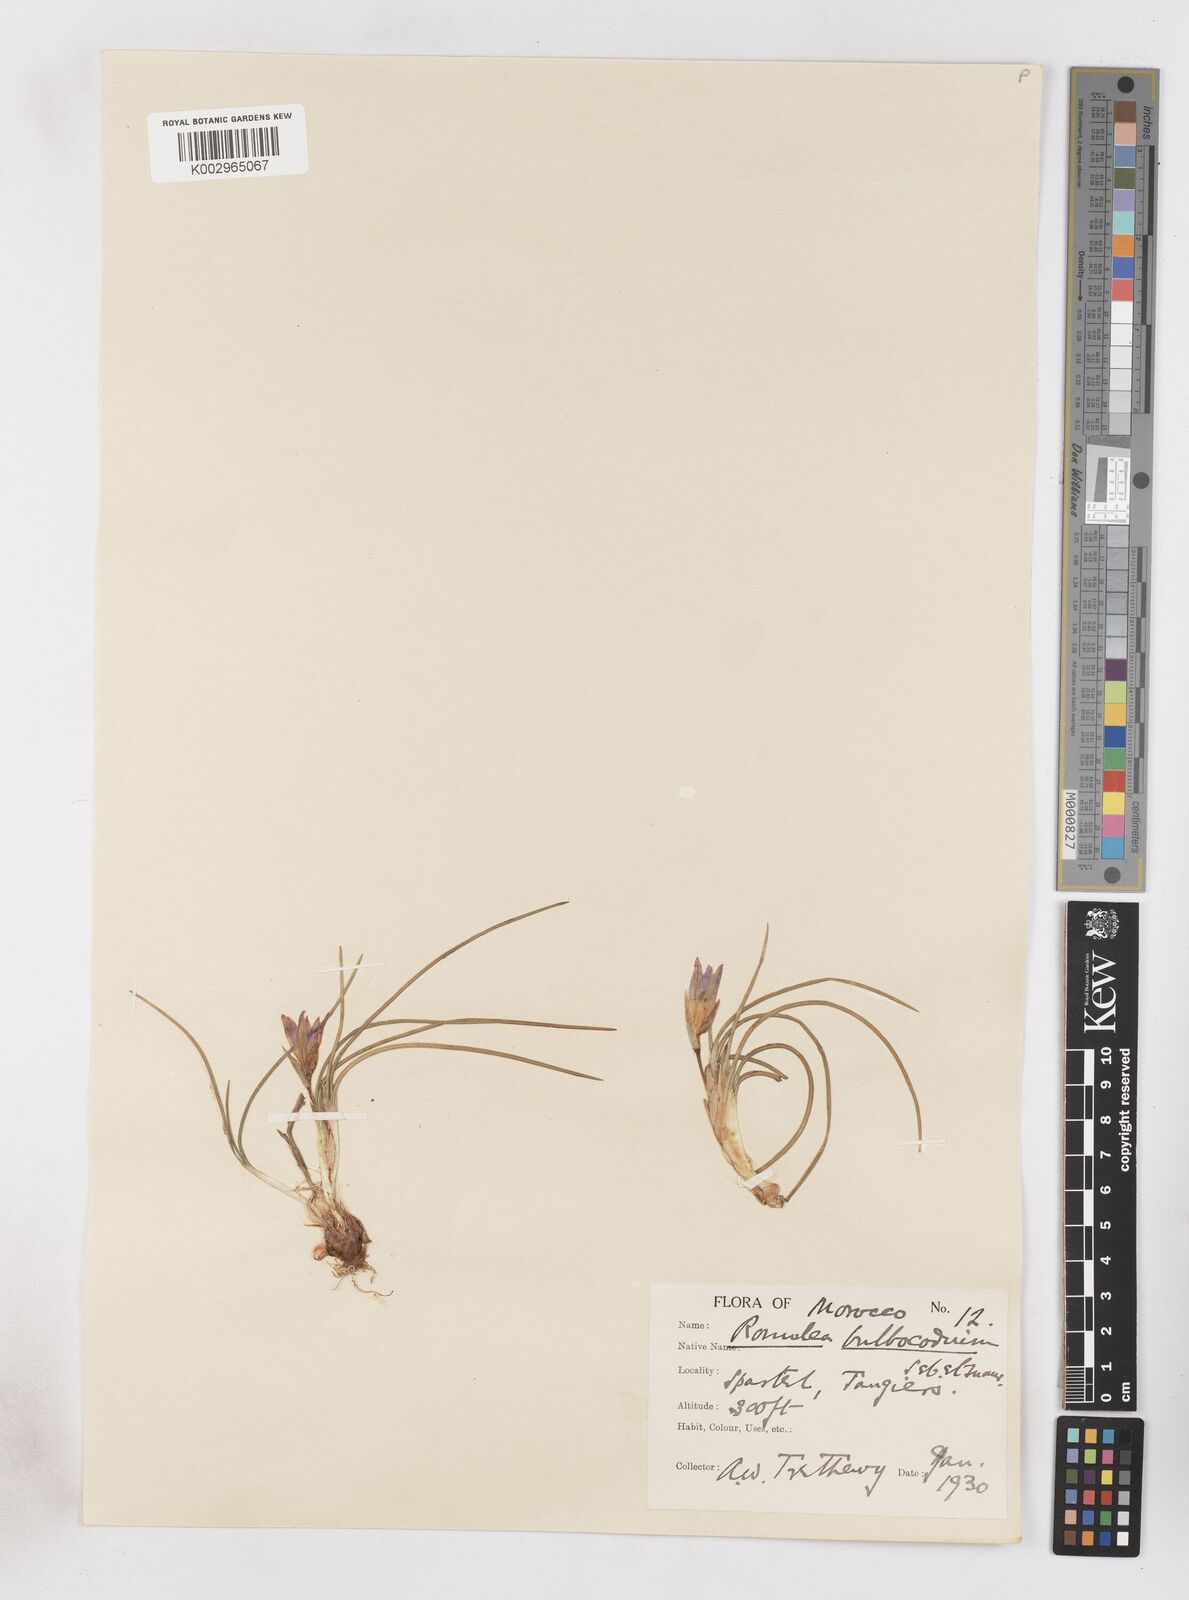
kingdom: Plantae
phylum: Tracheophyta
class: Liliopsida
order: Asparagales
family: Iridaceae
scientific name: Iridaceae
